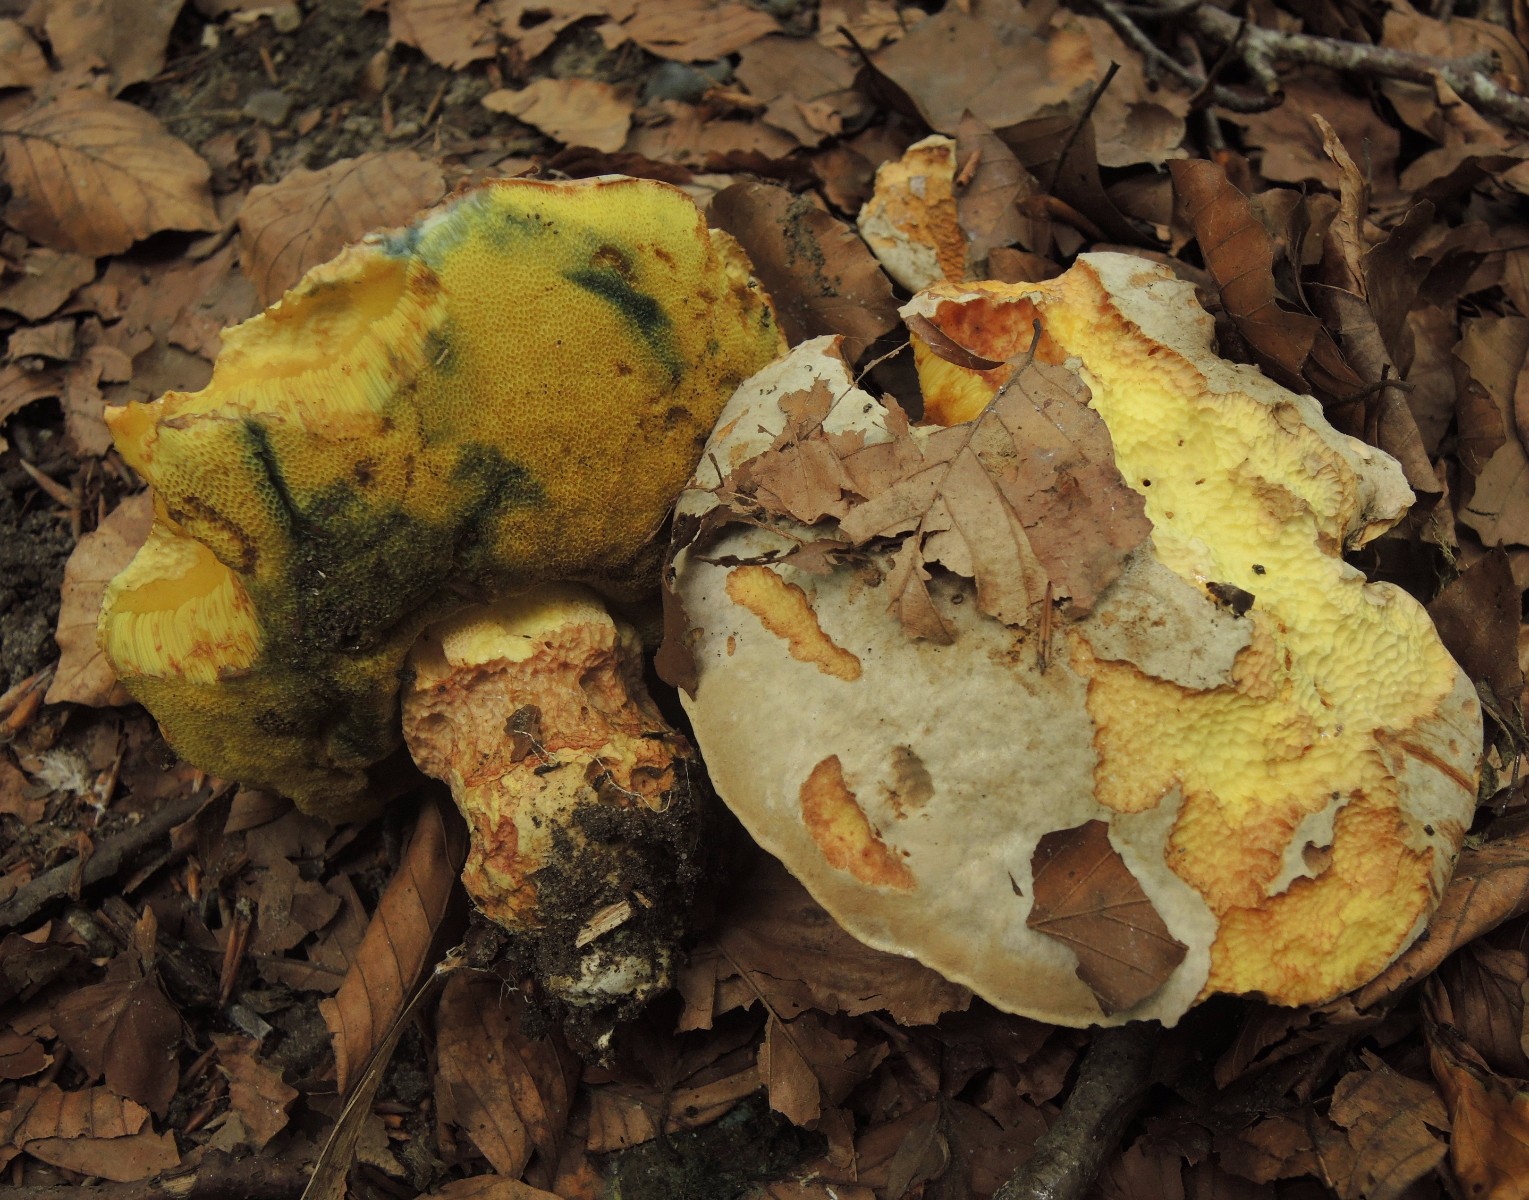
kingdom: Fungi
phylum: Basidiomycota
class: Agaricomycetes
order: Boletales
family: Boletaceae
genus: Butyriboletus
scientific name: Butyriboletus fechtneri
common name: sølvskinnende rørhat
